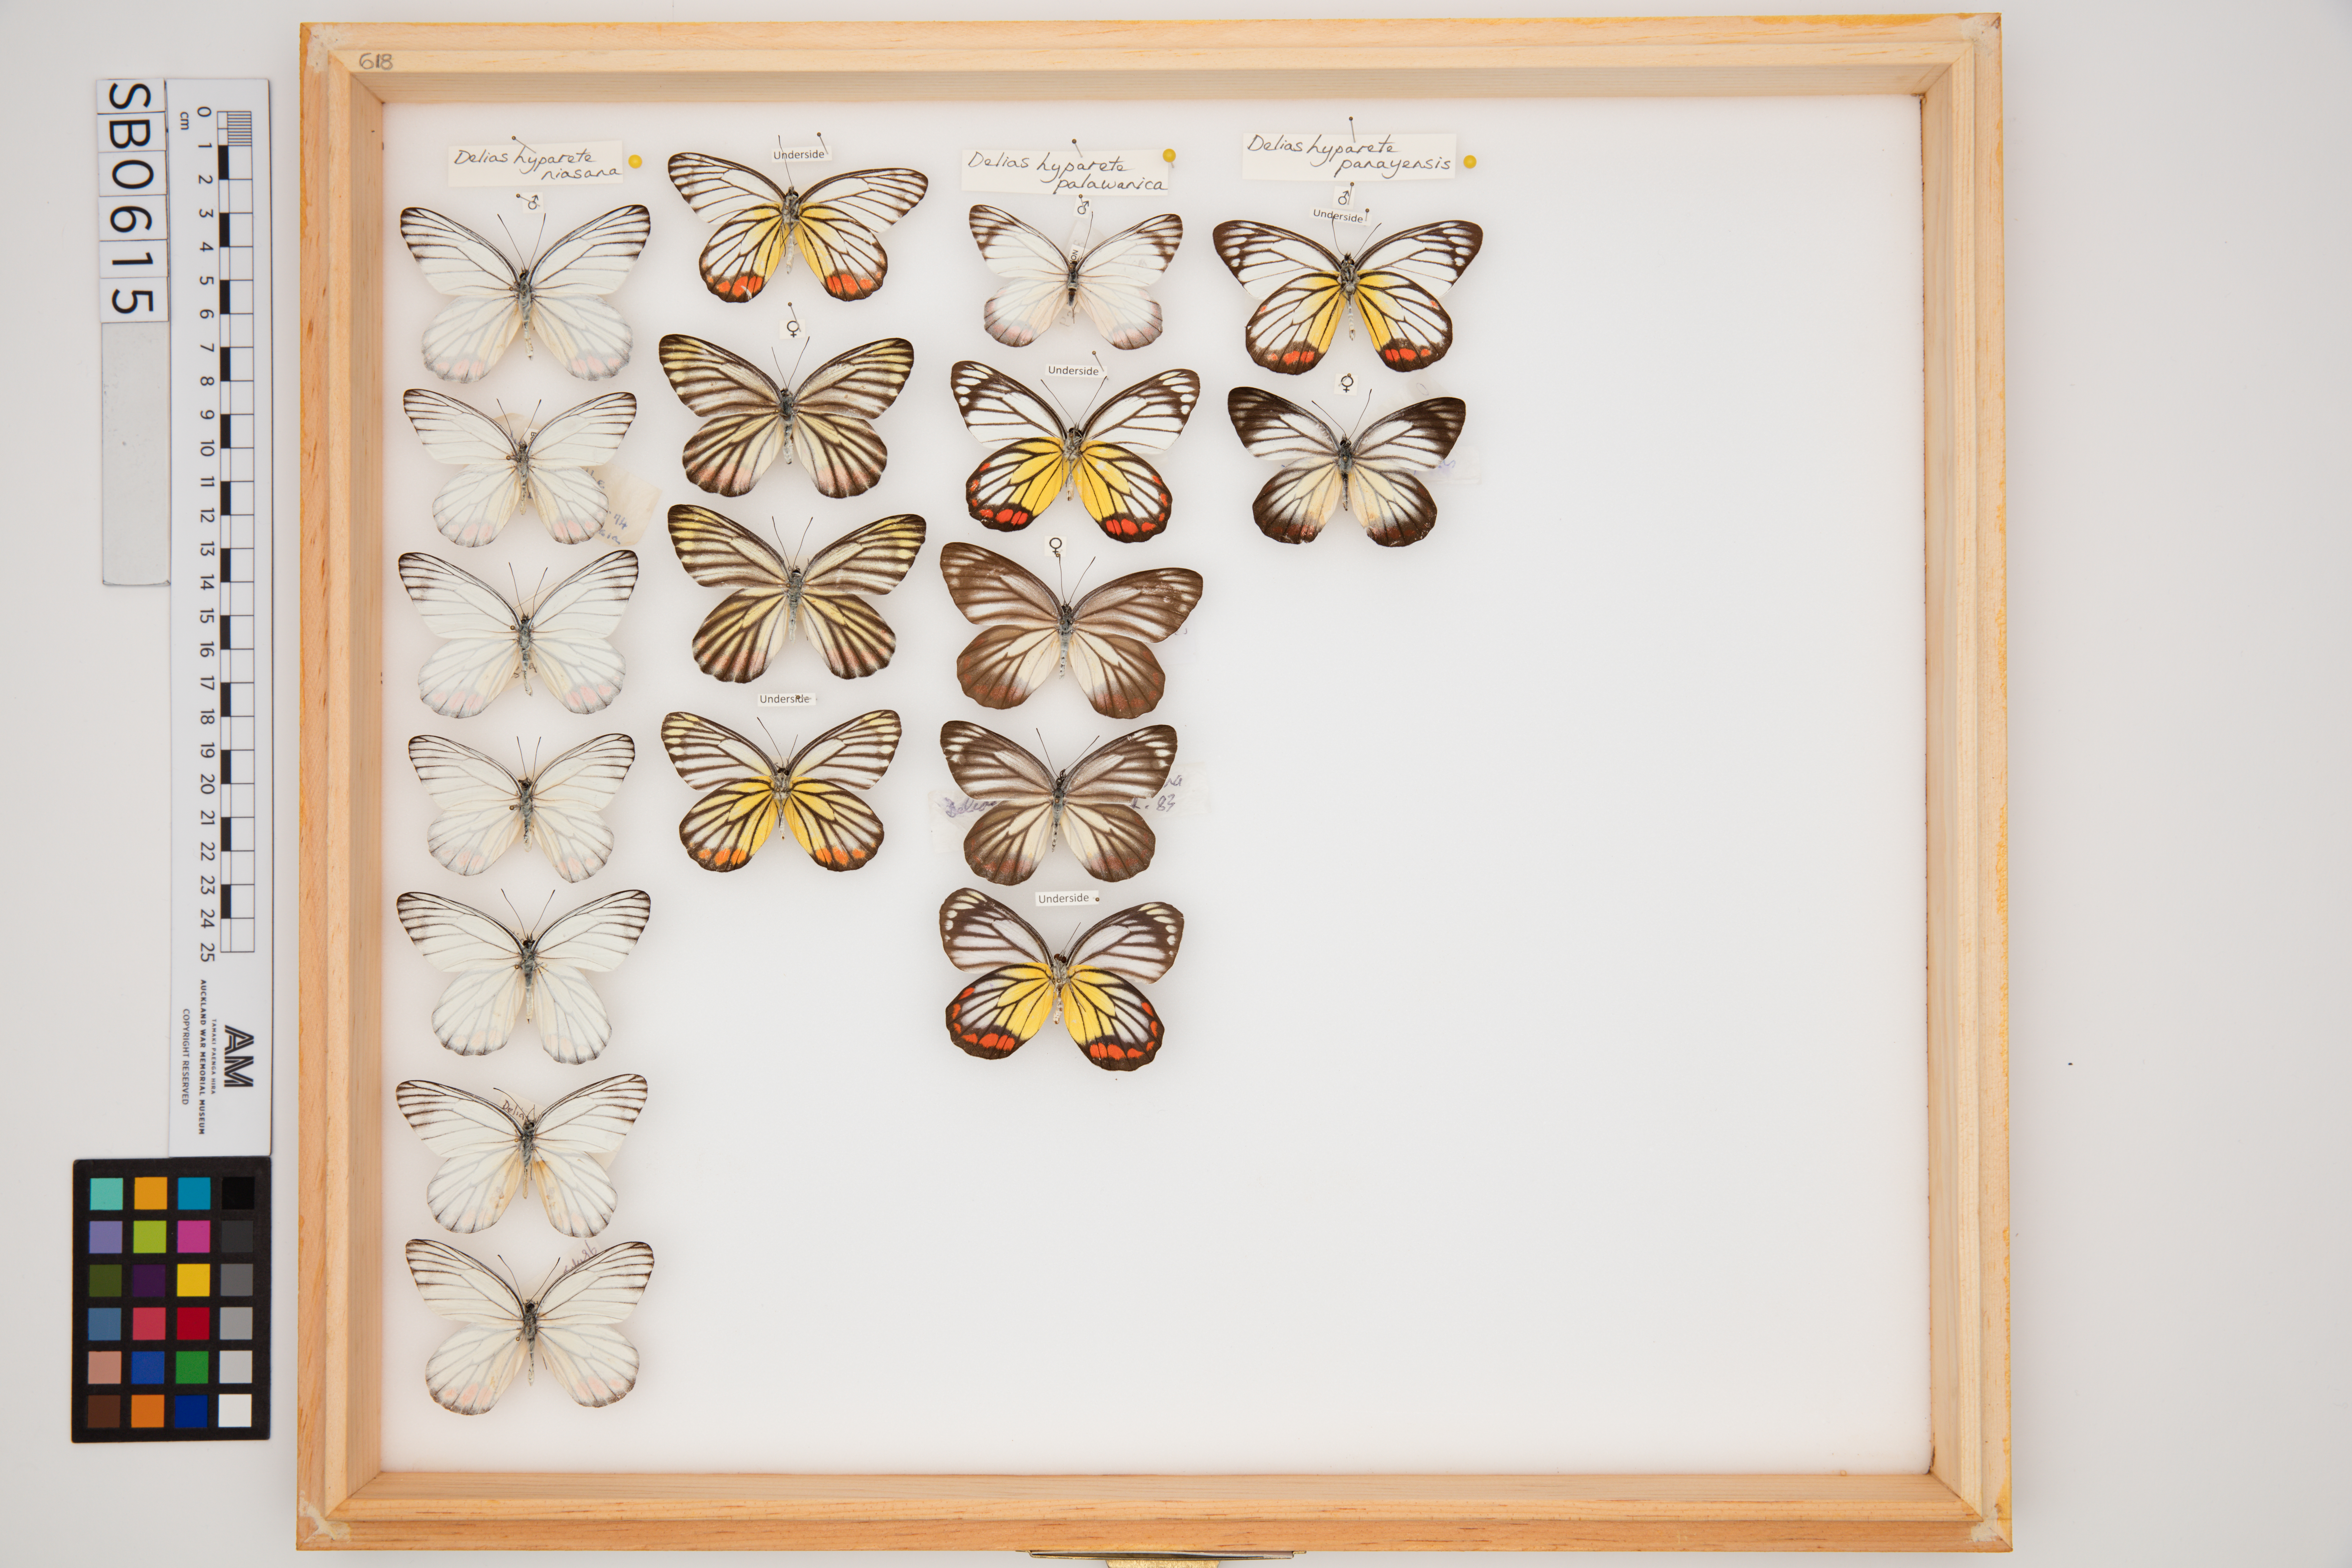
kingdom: Animalia
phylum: Arthropoda
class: Insecta
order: Lepidoptera
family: Pieridae
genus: Delias
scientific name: Delias hyparete
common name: Painted jezebel
